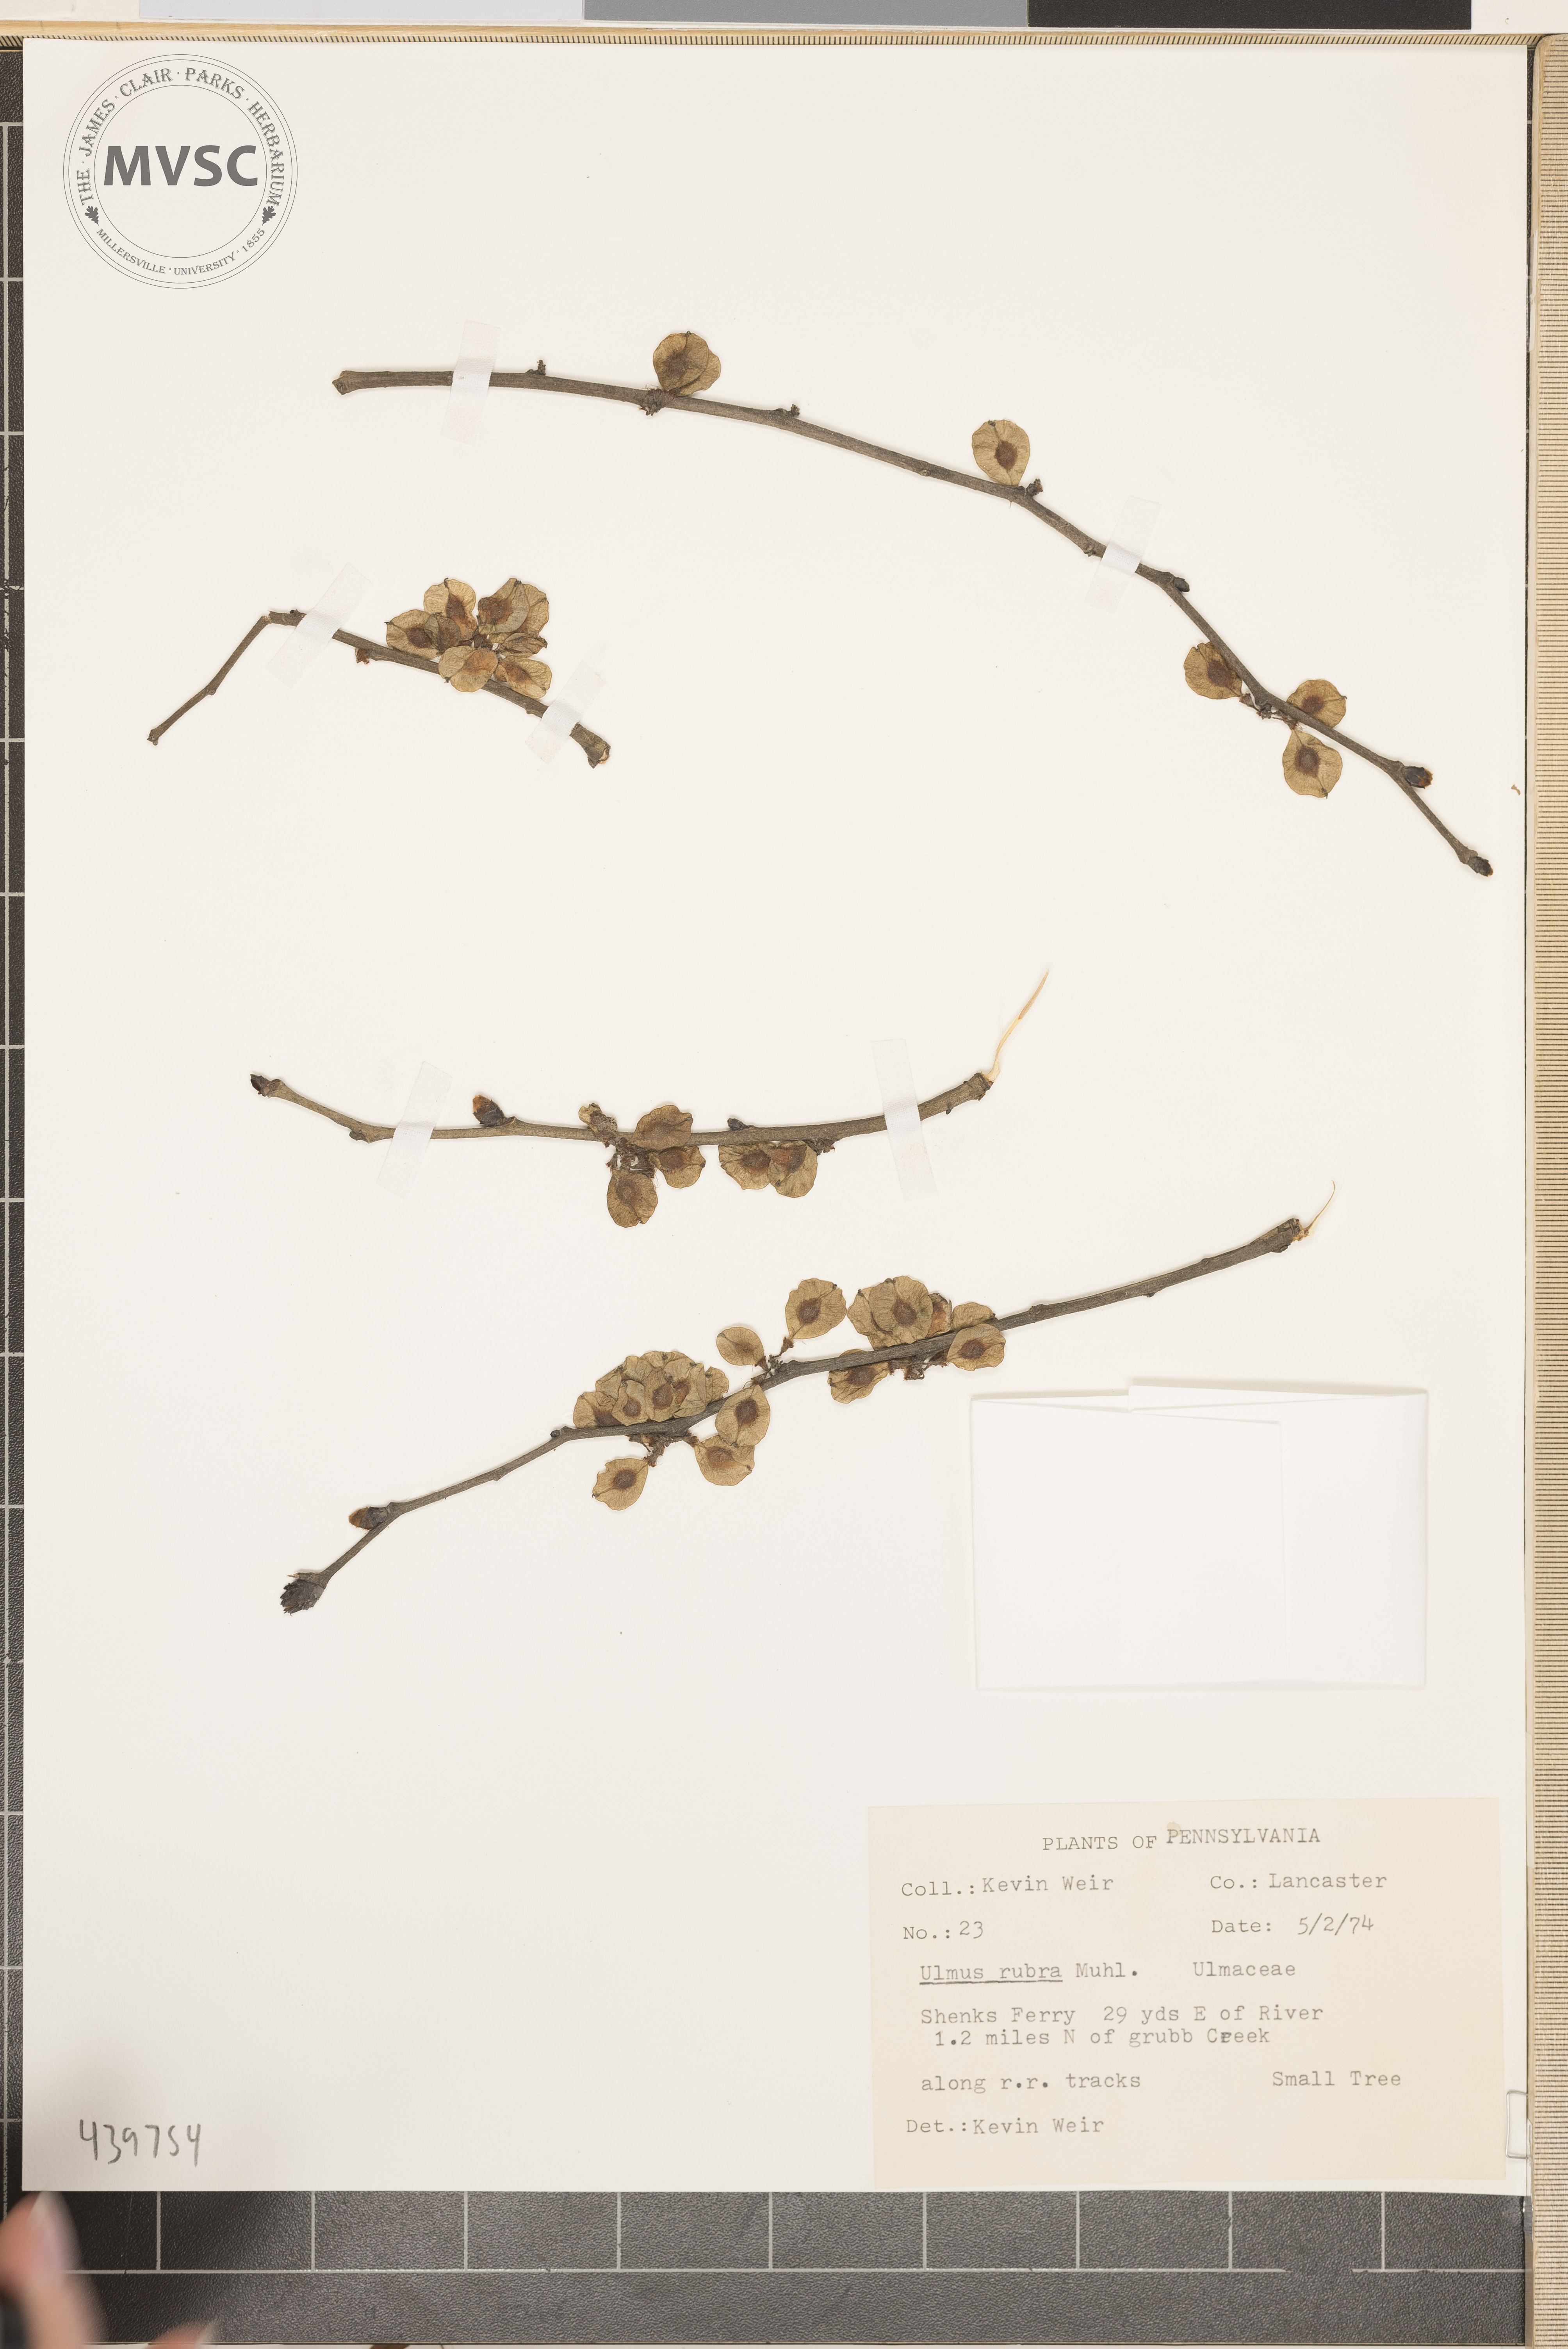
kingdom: Plantae
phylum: Tracheophyta
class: Magnoliopsida
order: Rosales
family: Ulmaceae
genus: Ulmus
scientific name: Ulmus rubra
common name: Slippery elm
